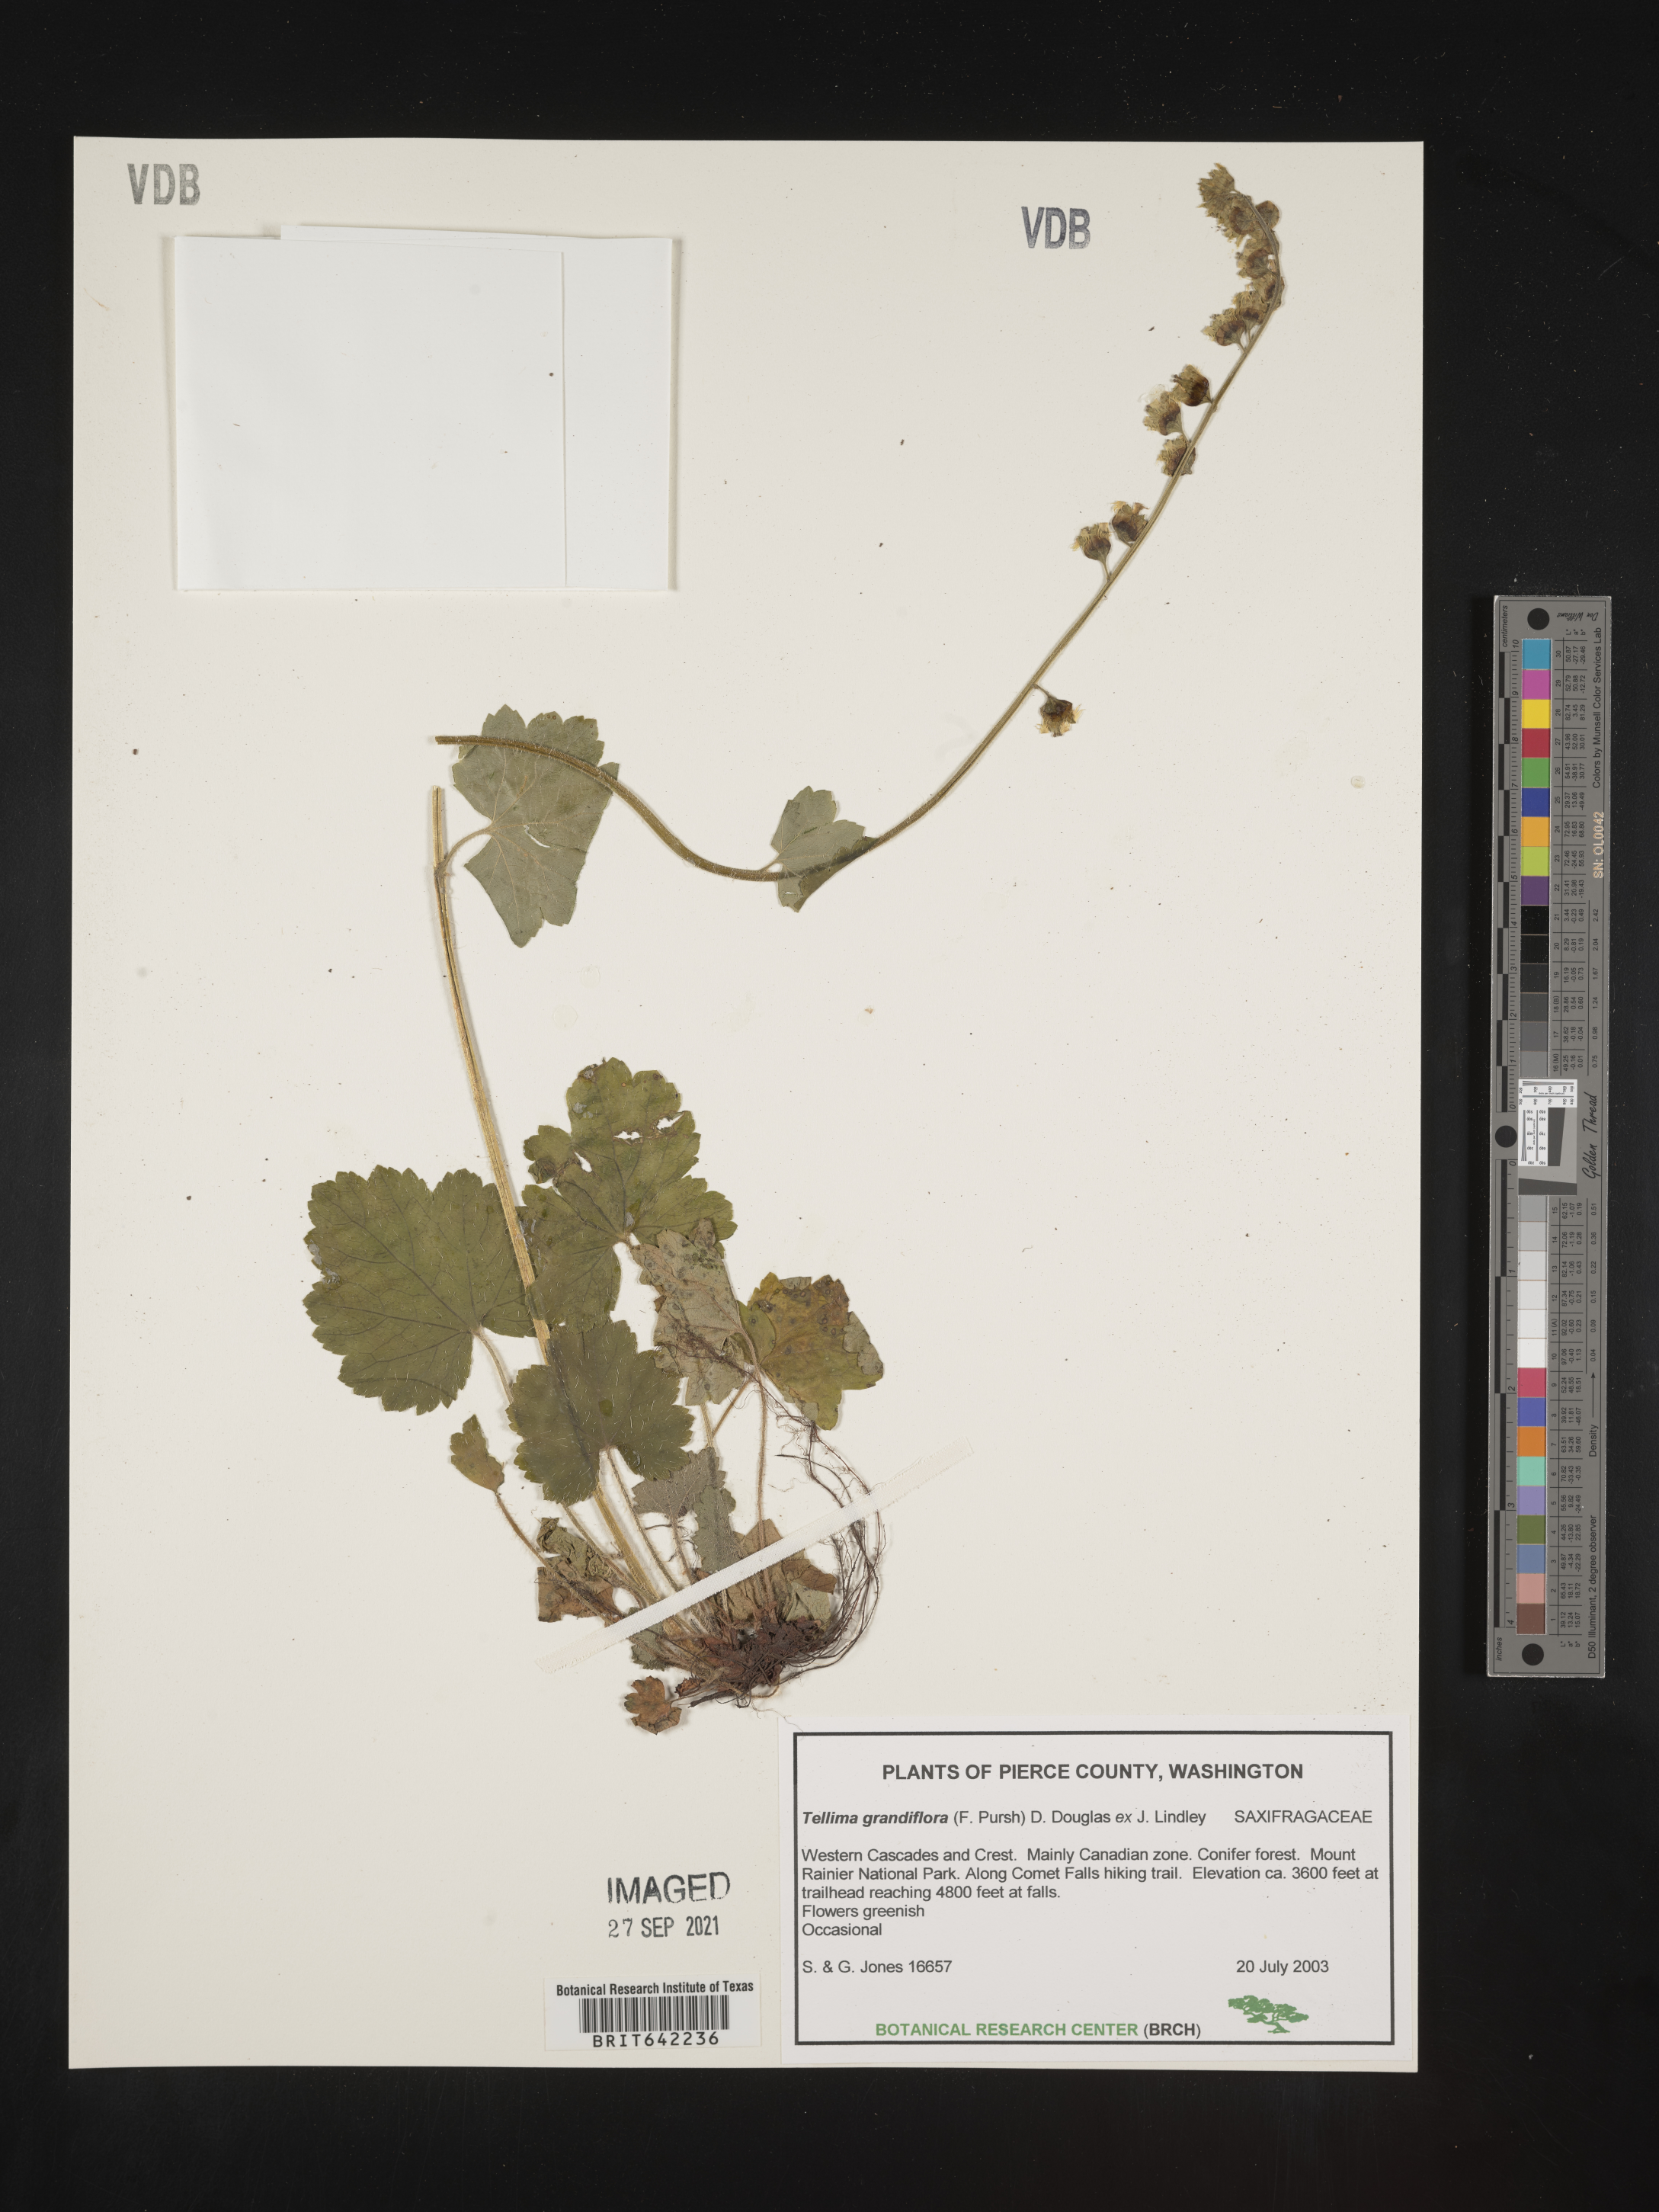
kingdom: Plantae
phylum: Tracheophyta
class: Magnoliopsida
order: Saxifragales
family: Saxifragaceae
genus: Tellima
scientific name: Tellima grandiflora
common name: Fringecups
